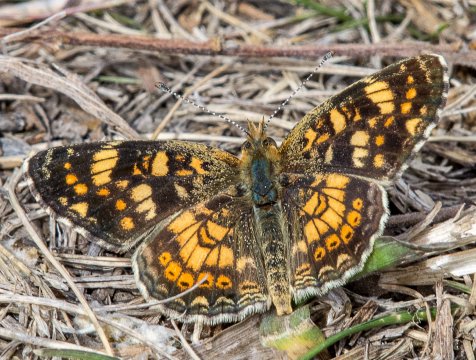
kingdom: Animalia
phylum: Arthropoda
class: Insecta
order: Lepidoptera
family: Nymphalidae
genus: Phyciodes
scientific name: Phyciodes tharos
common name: Field Crescent
